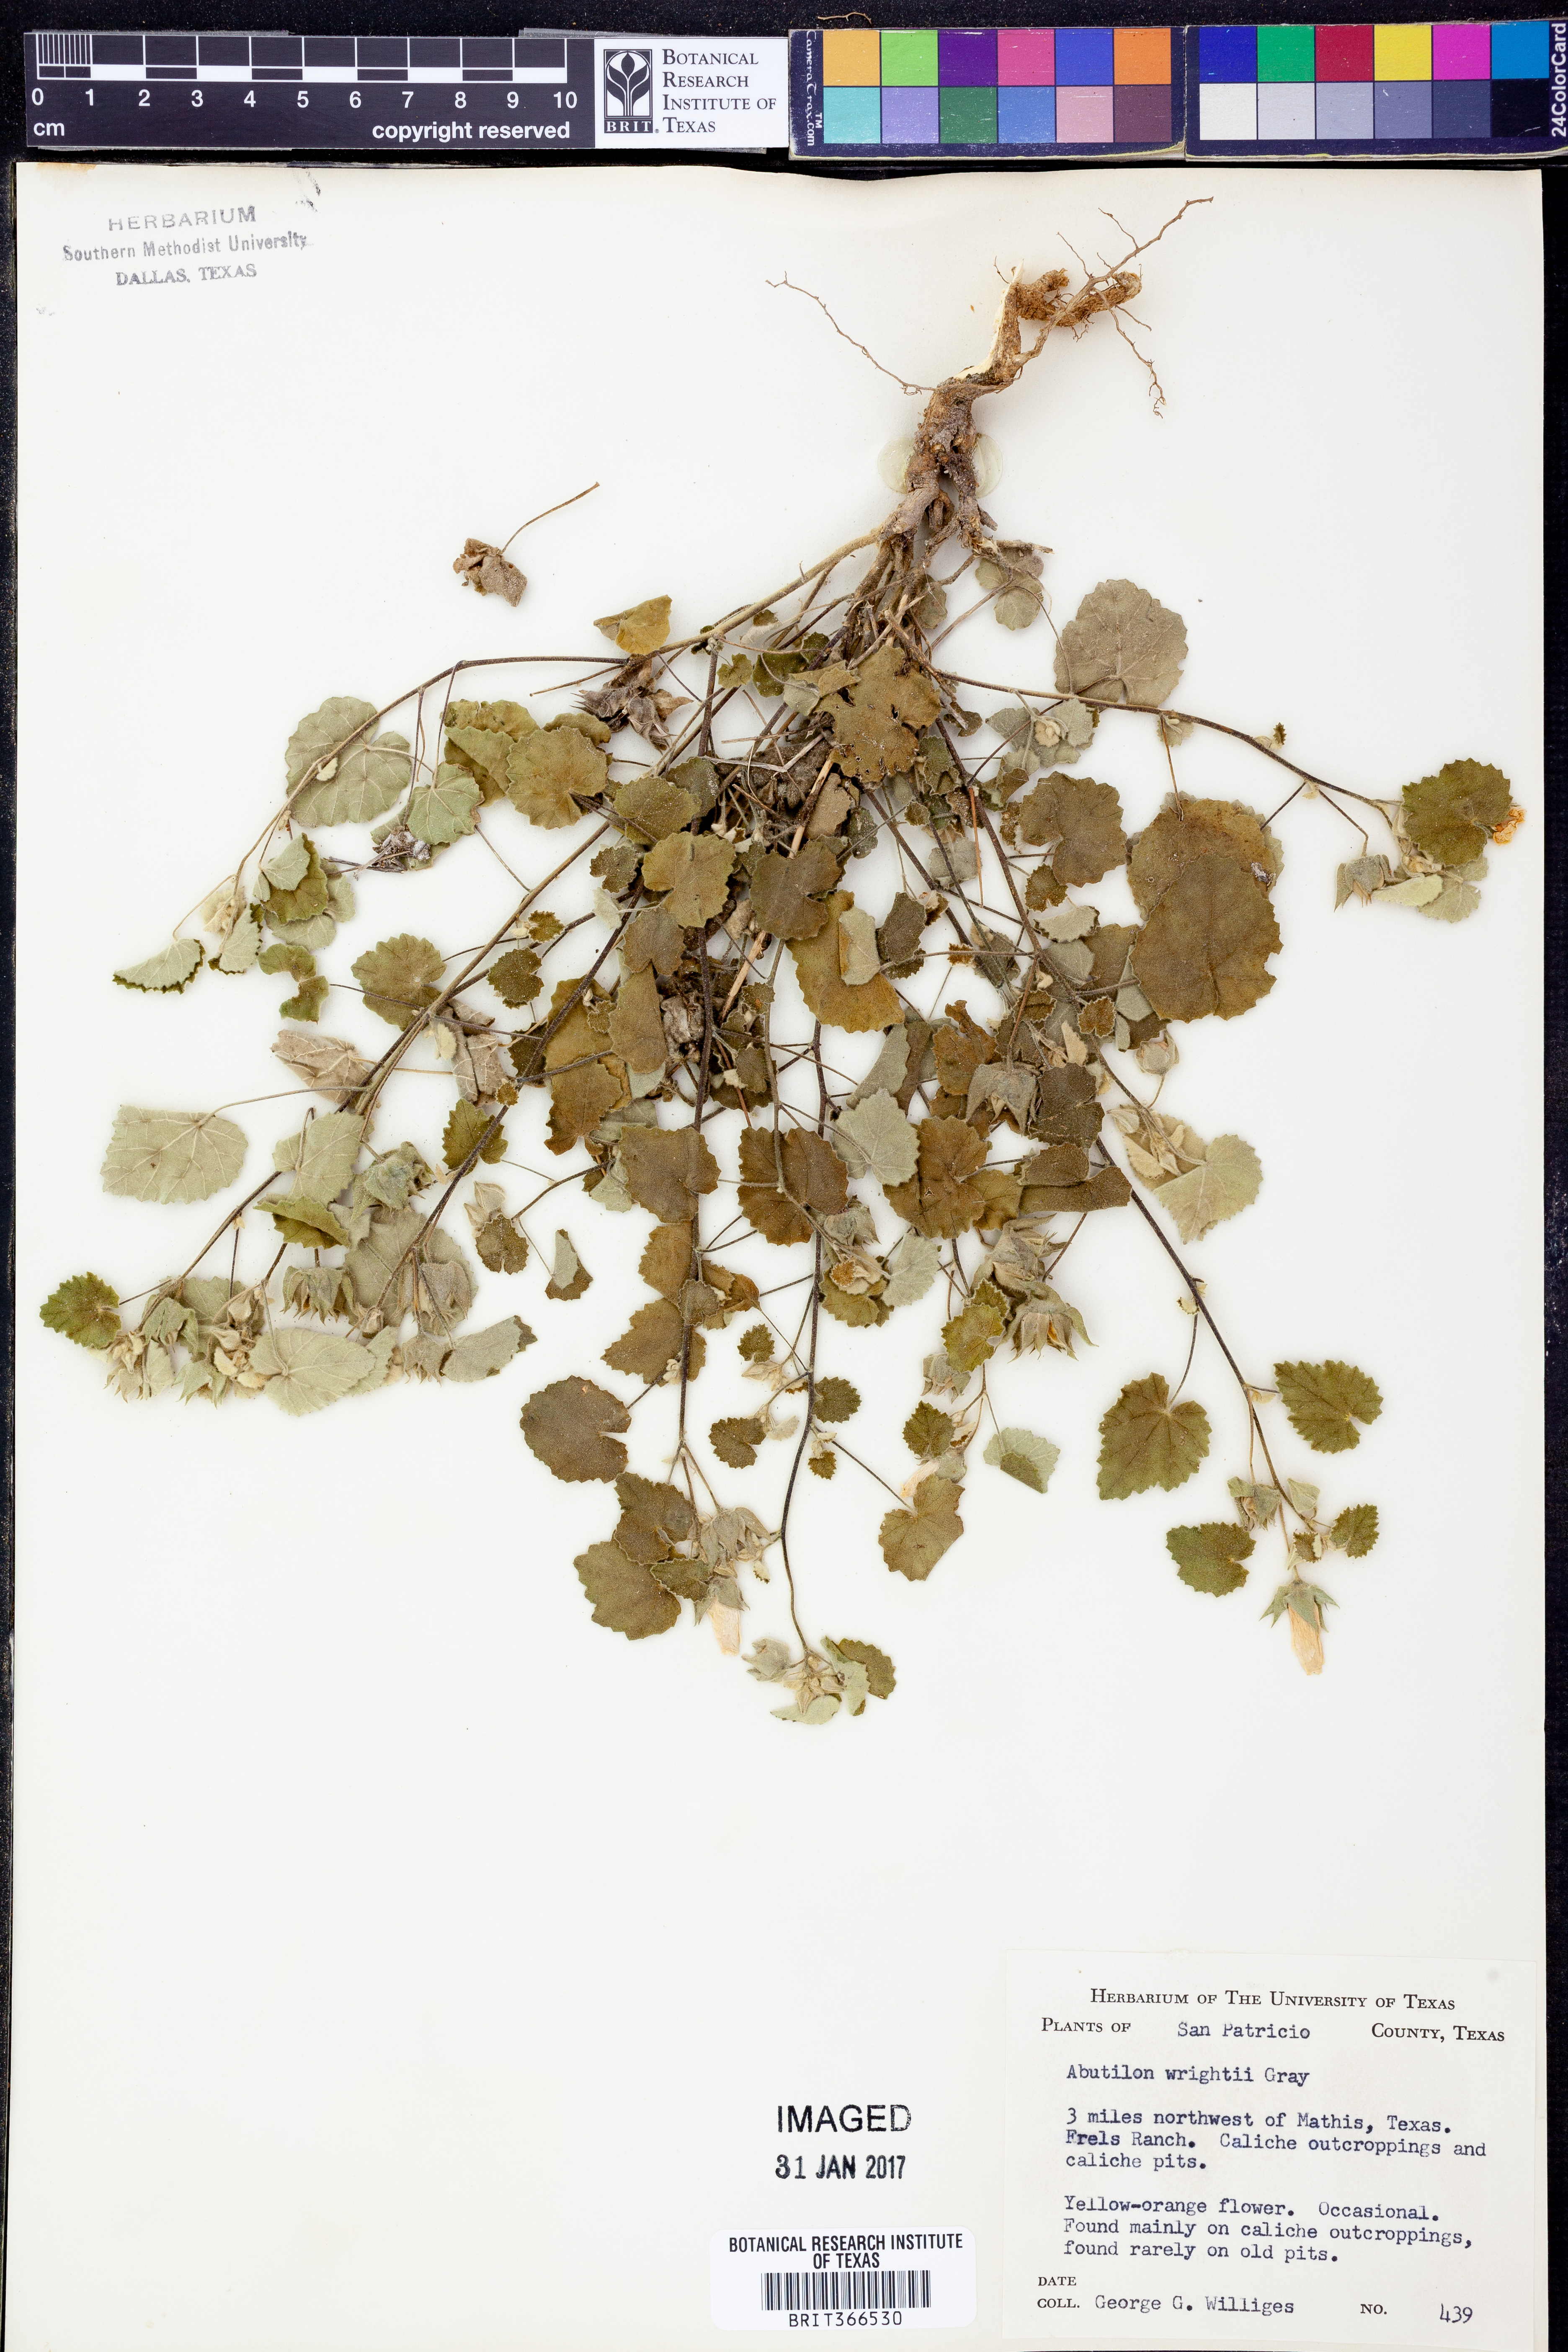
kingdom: Plantae
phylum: Tracheophyta
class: Magnoliopsida
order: Malvales
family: Malvaceae
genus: Abutilon
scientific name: Abutilon wrightii
